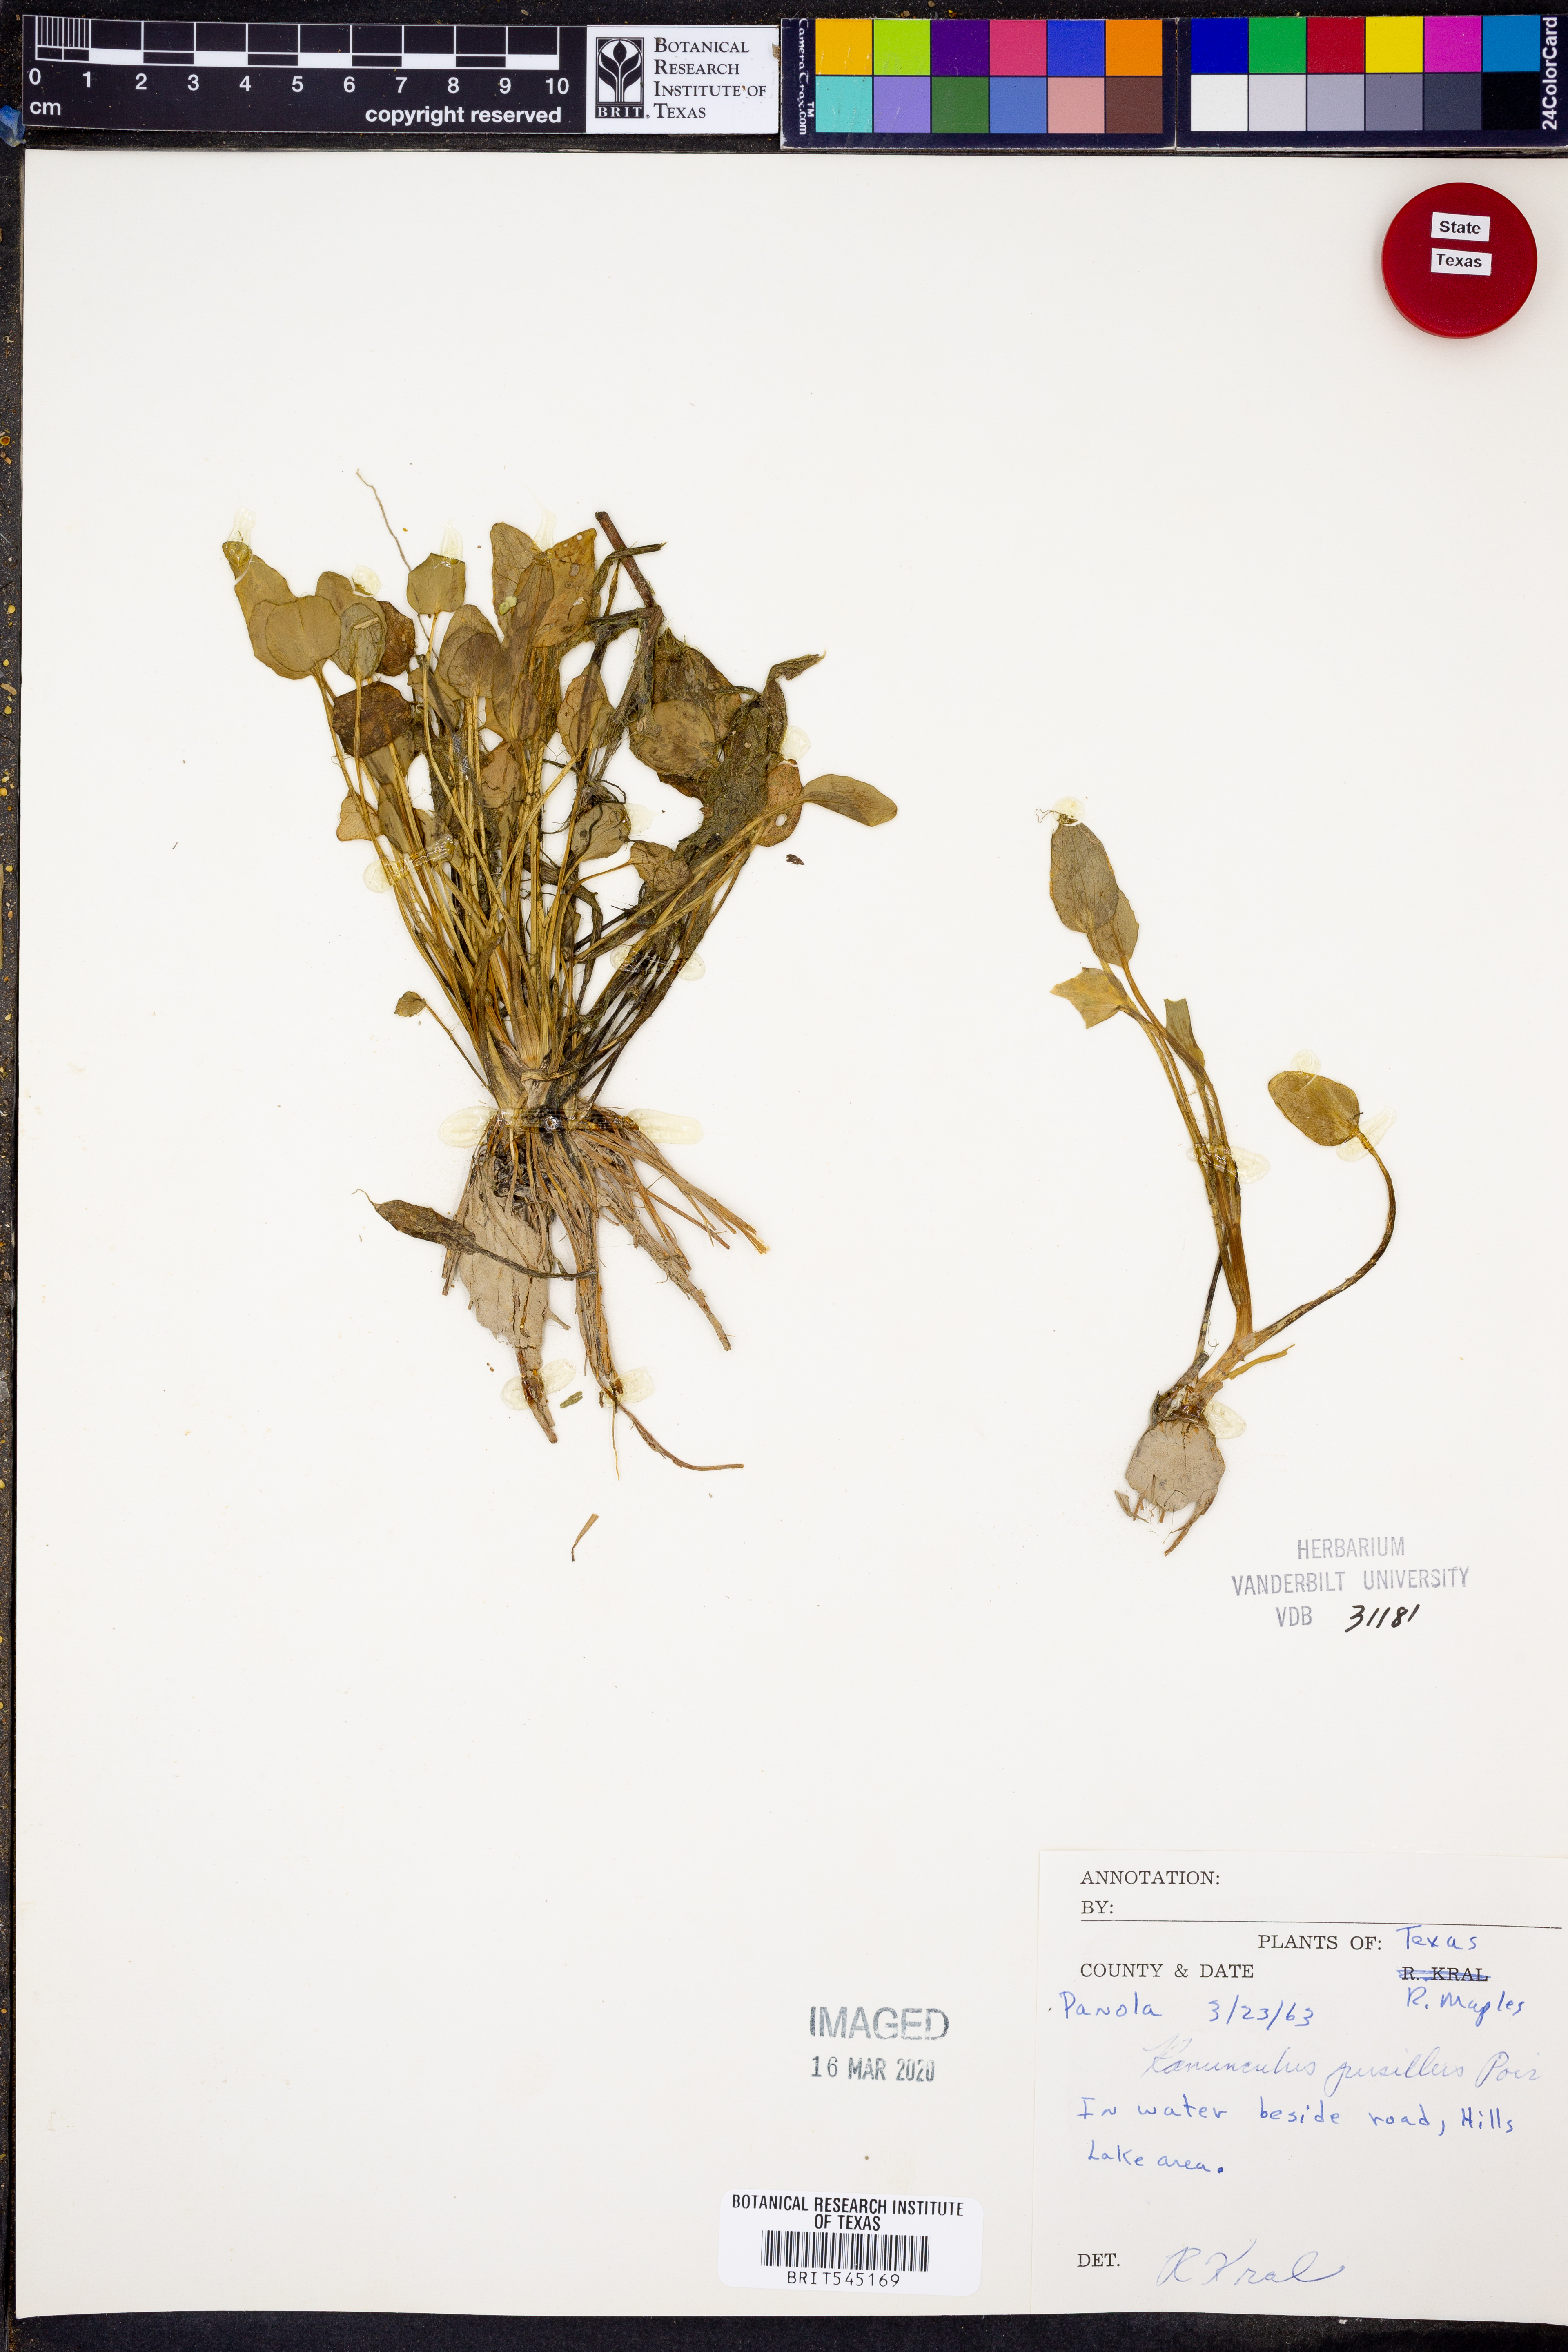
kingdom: Plantae
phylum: Tracheophyta
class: Magnoliopsida
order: Ranunculales
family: Ranunculaceae
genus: Ranunculus
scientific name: Ranunculus pusillus
